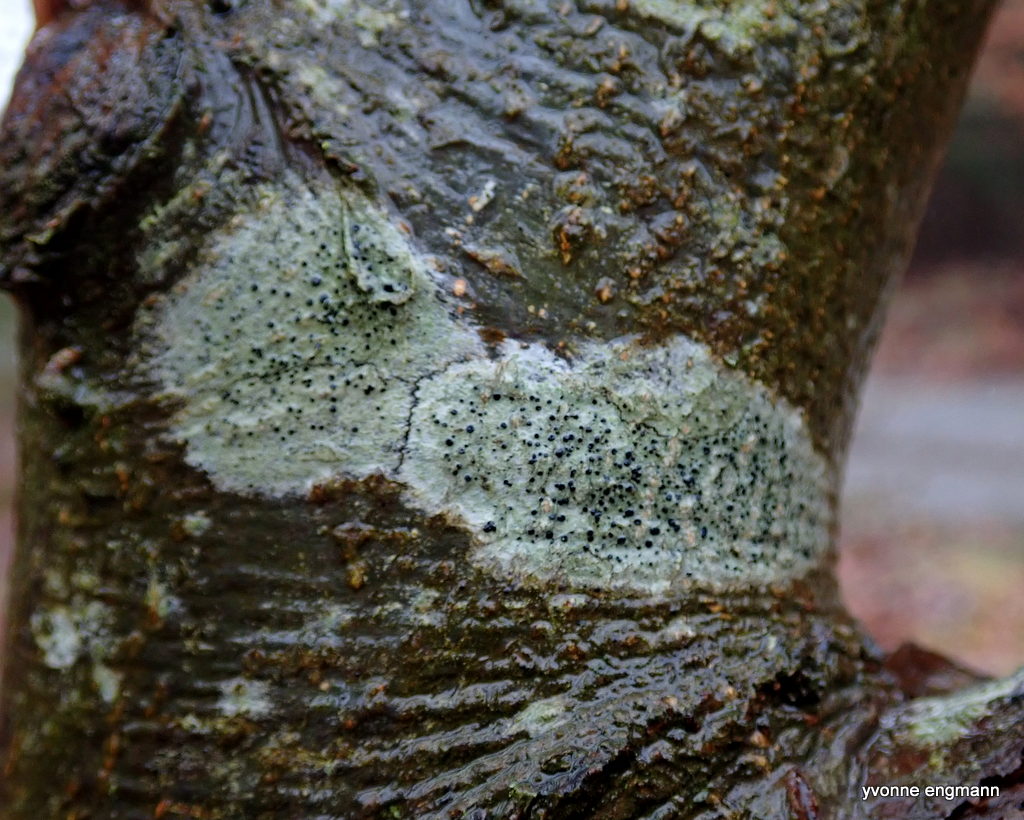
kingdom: Fungi
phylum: Ascomycota
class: Lecanoromycetes
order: Lecanorales
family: Lecanoraceae
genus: Lecidella
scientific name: Lecidella elaeochroma
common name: grågrøn skivelav
